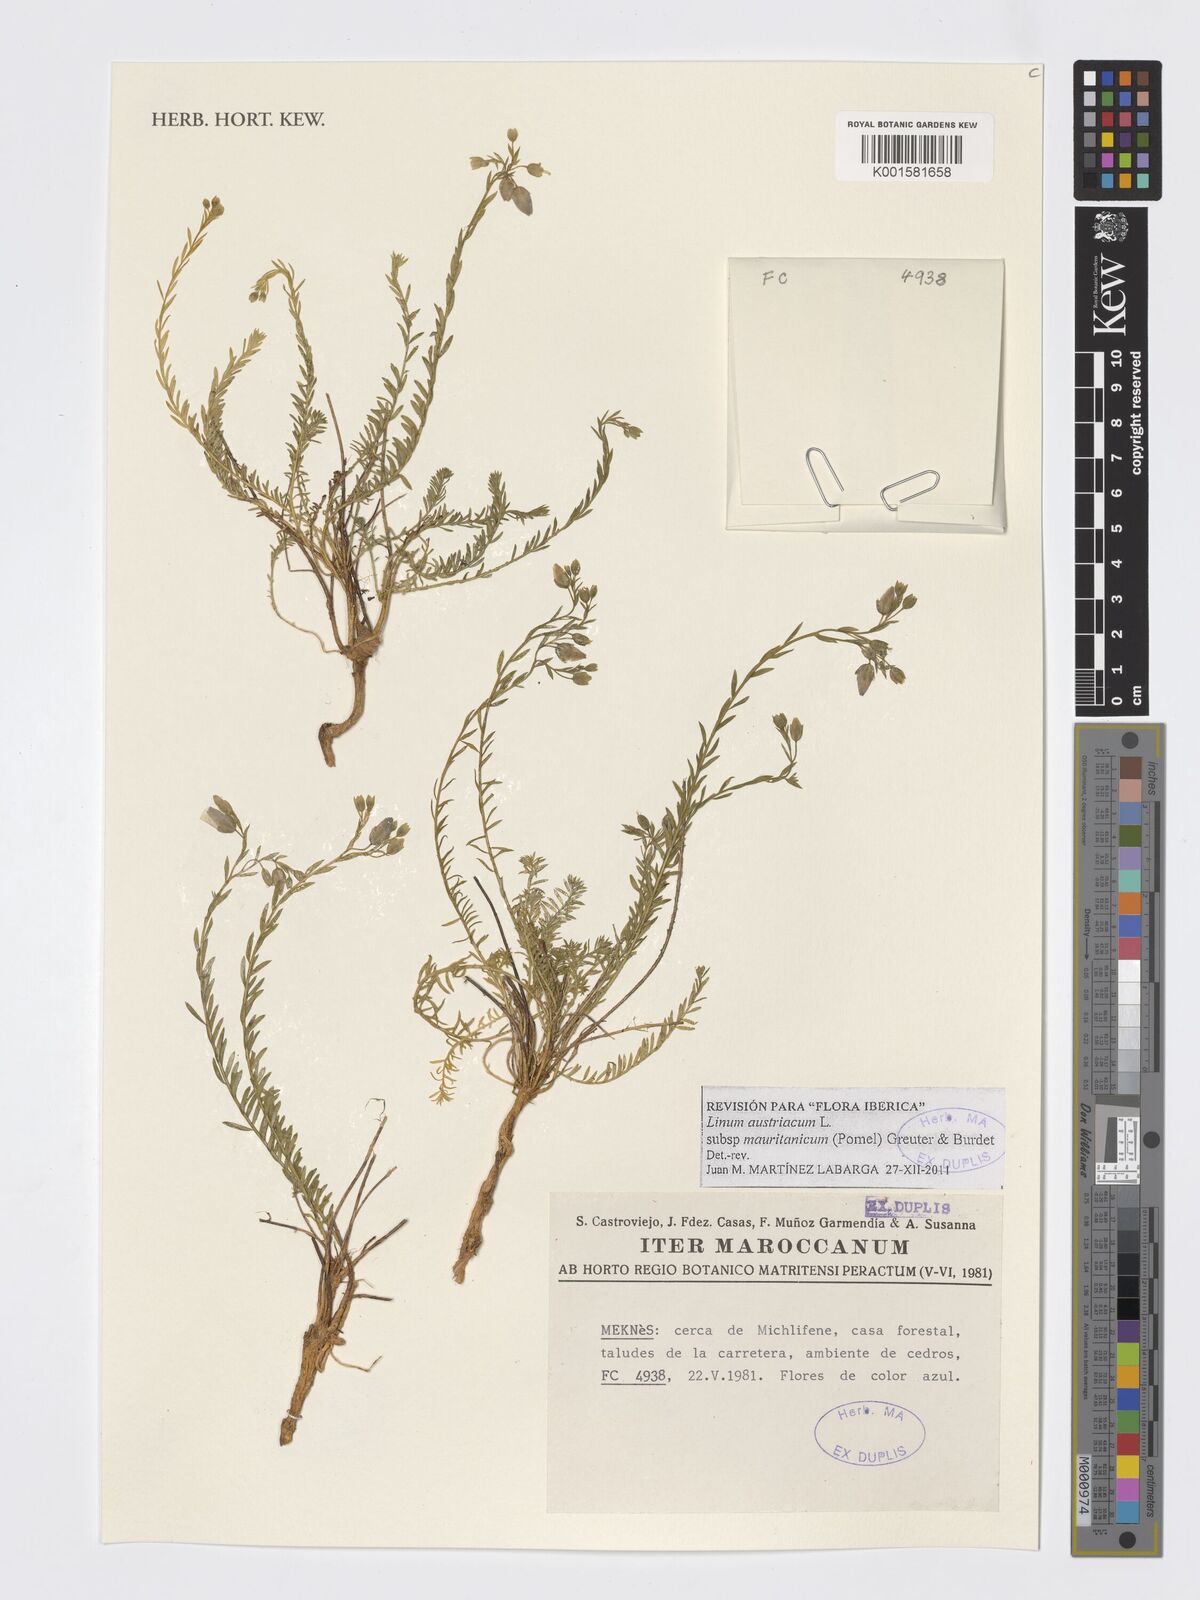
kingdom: Plantae
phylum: Tracheophyta
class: Magnoliopsida
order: Malpighiales
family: Linaceae
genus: Linum
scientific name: Linum austriacum
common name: Austrian flax
